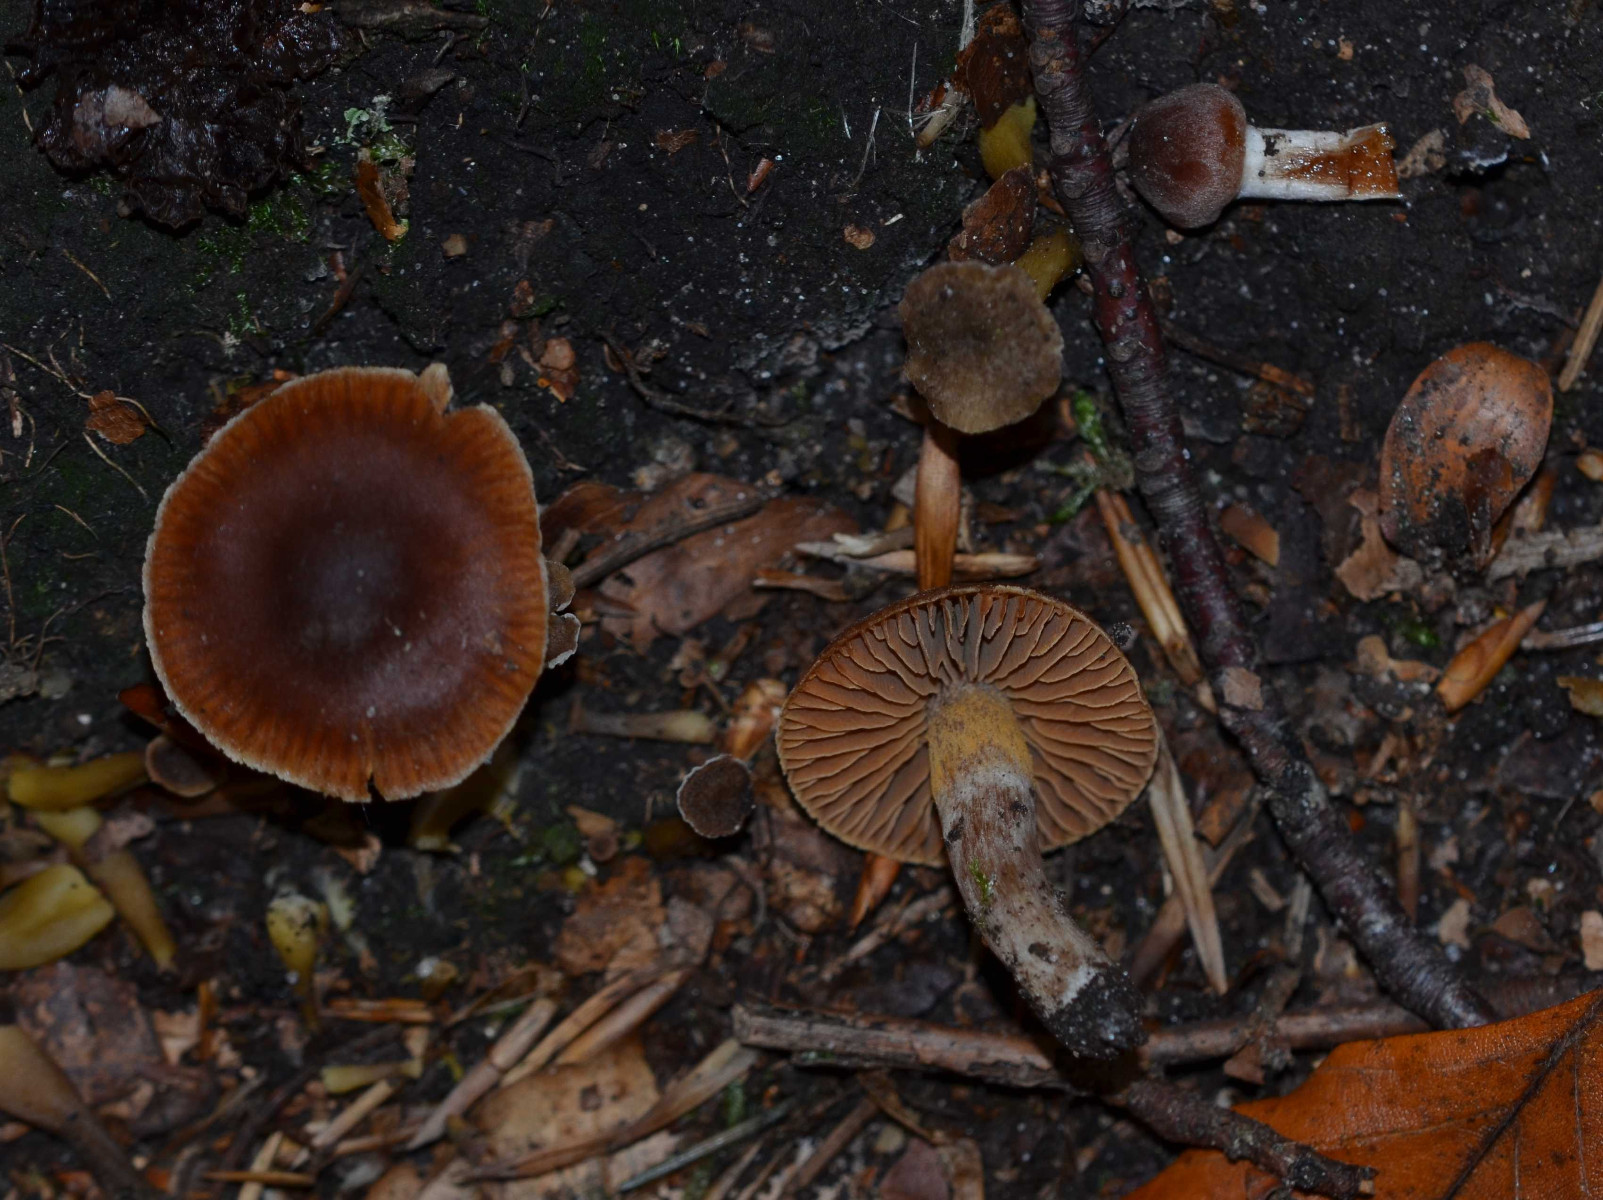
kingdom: Fungi
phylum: Basidiomycota
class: Agaricomycetes
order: Agaricales
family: Cortinariaceae
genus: Cortinarius
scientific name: Cortinarius
